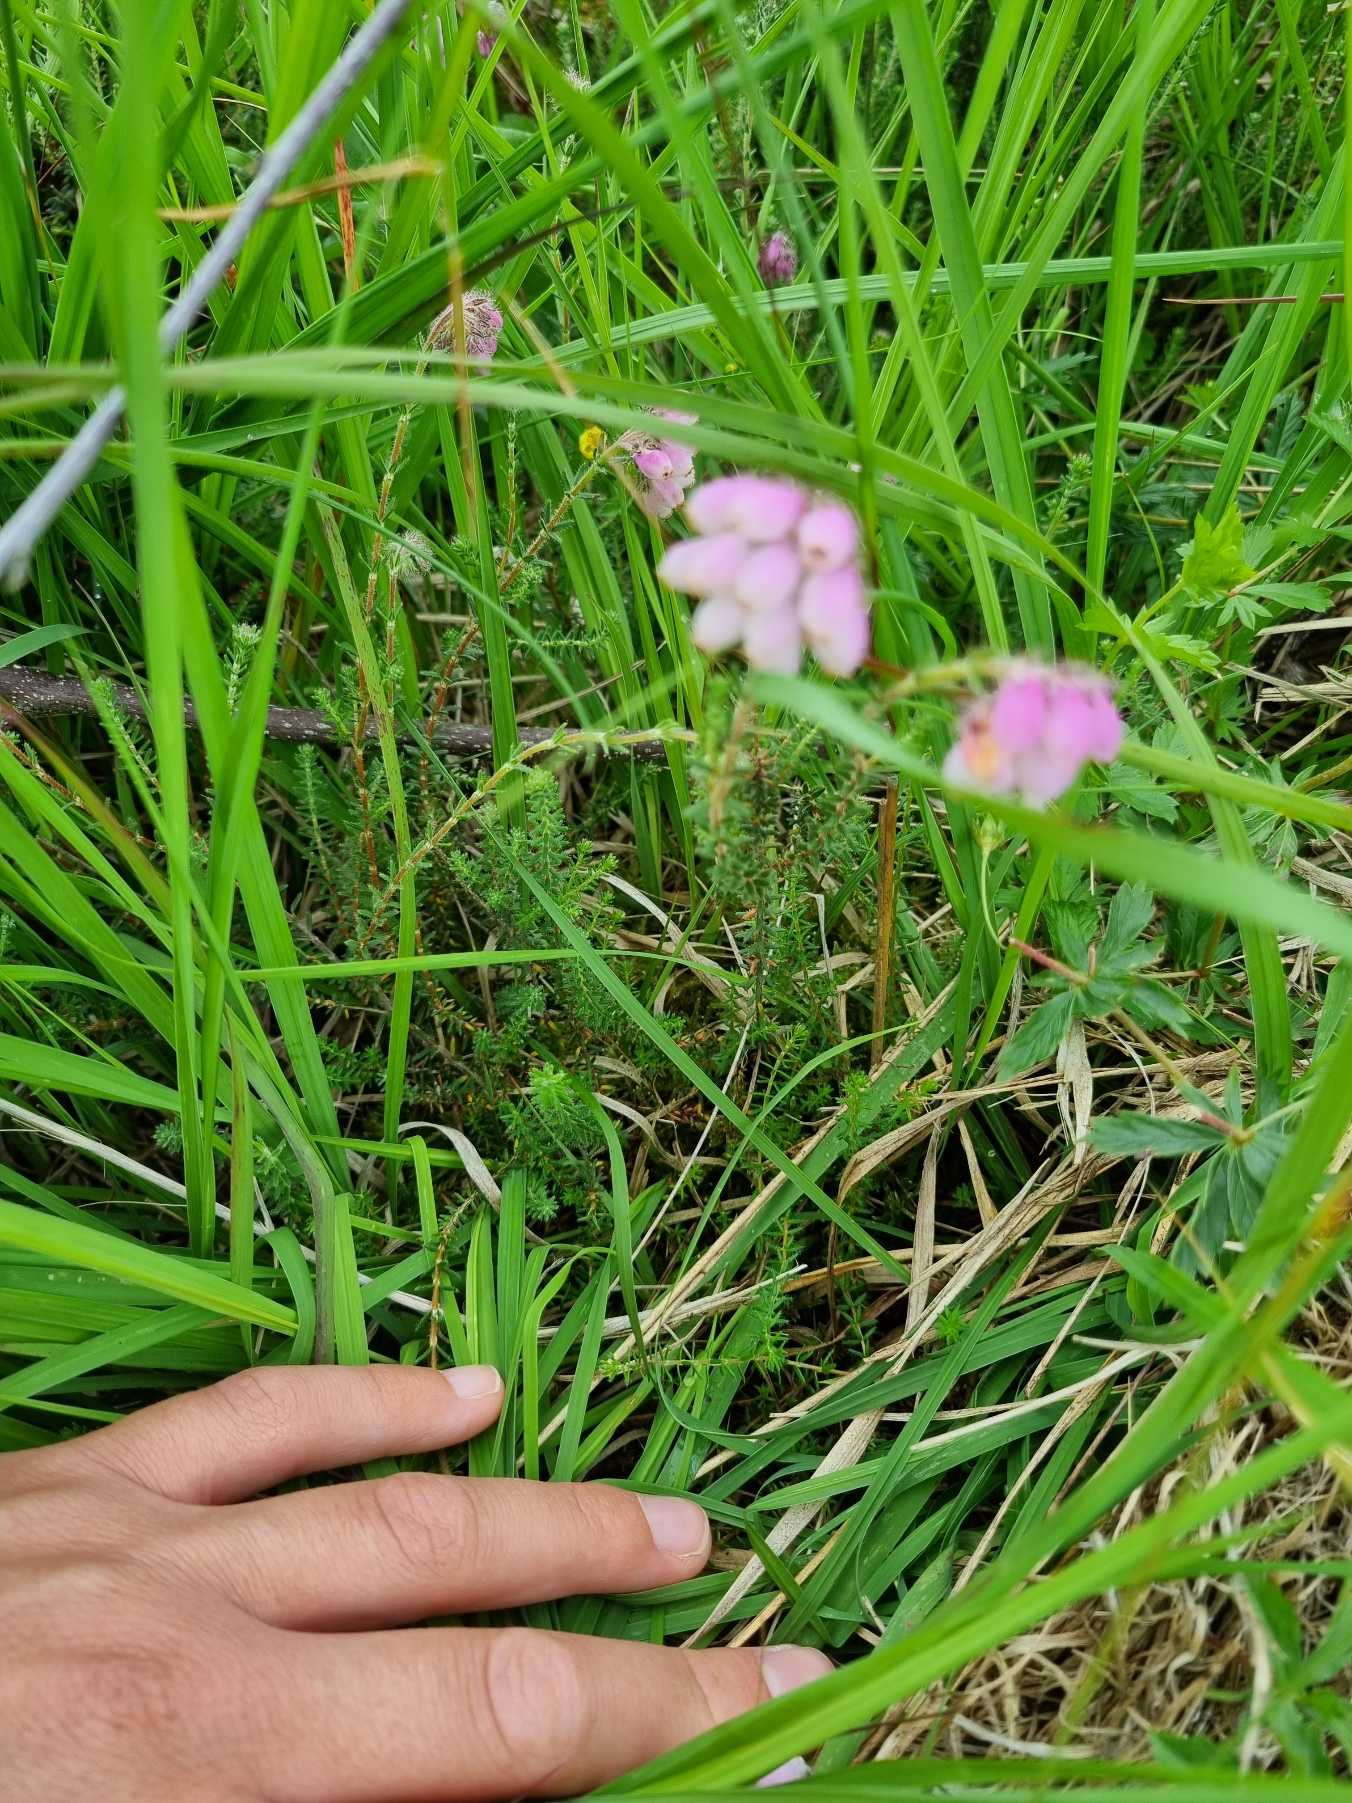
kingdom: Plantae
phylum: Tracheophyta
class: Magnoliopsida
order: Ericales
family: Ericaceae
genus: Erica
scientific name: Erica tetralix
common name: Klokkelyng
